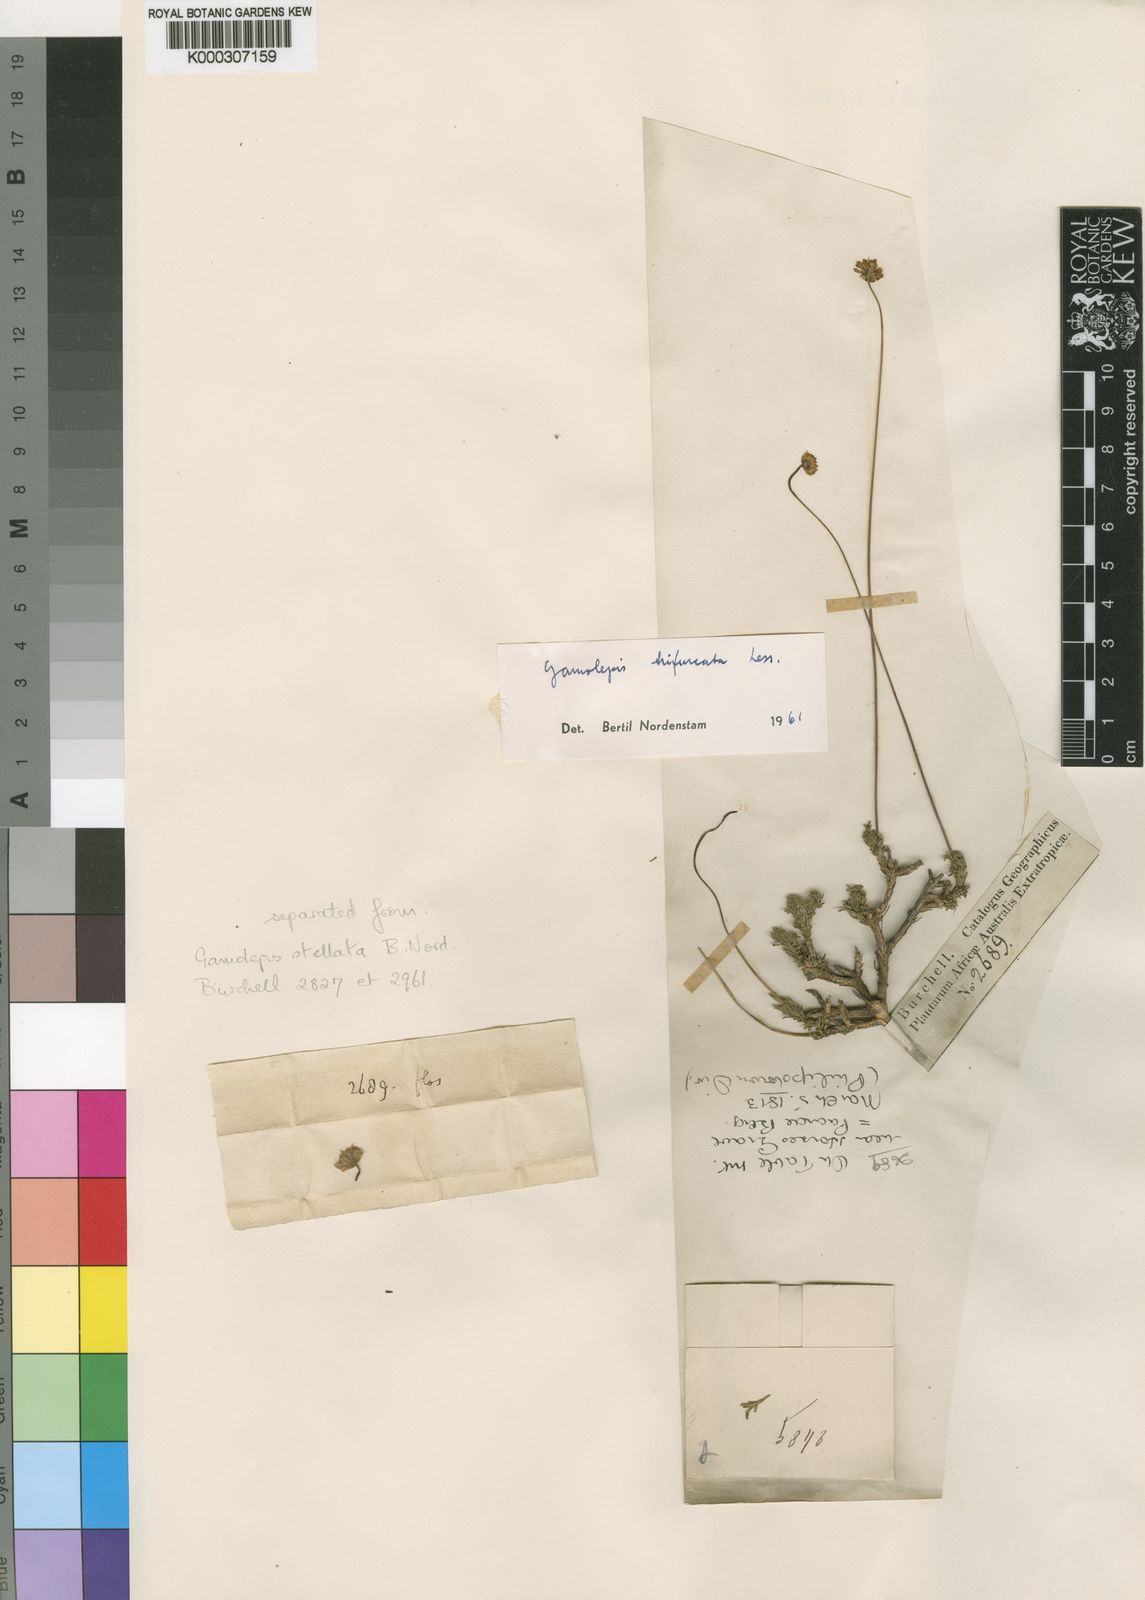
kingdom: Plantae
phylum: Tracheophyta
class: Magnoliopsida
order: Asterales
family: Asteraceae
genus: Euryops
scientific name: Euryops anthemoides
